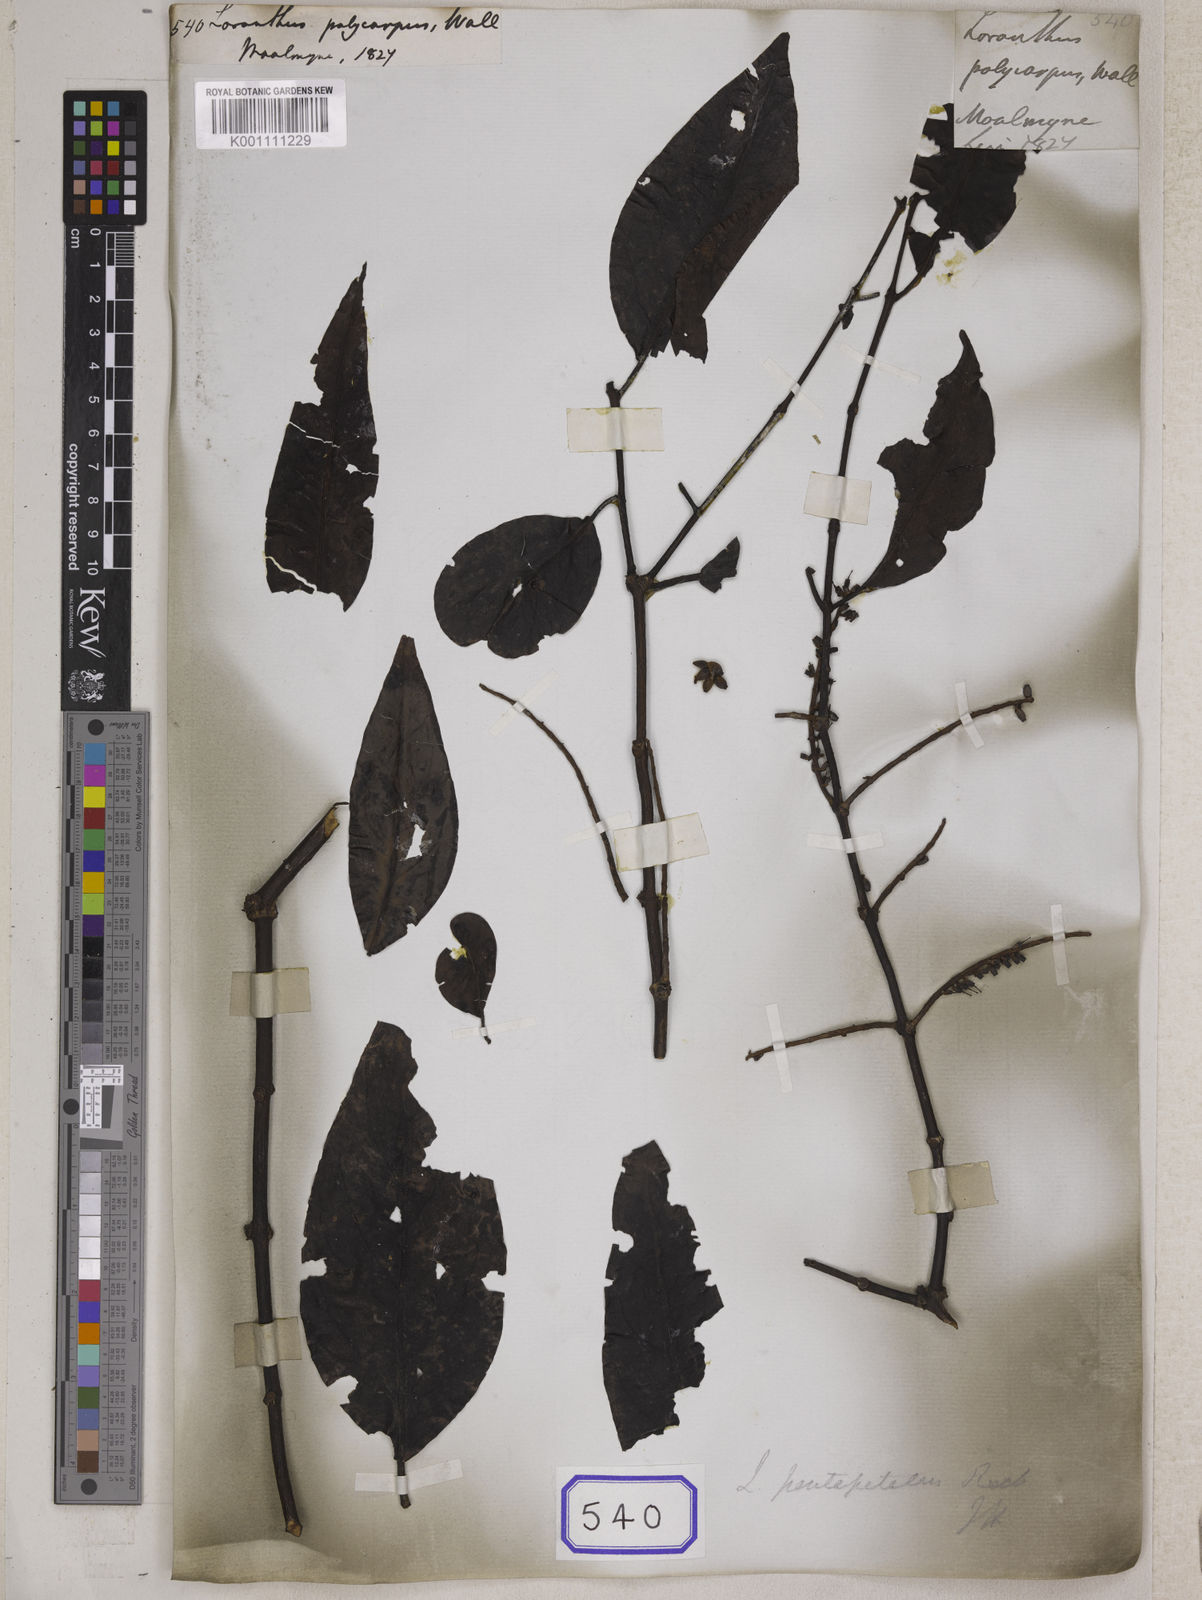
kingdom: Plantae
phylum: Tracheophyta
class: Magnoliopsida
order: Santalales
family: Loranthaceae
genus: Dendrophthoe
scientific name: Dendrophthoe pentapetala
